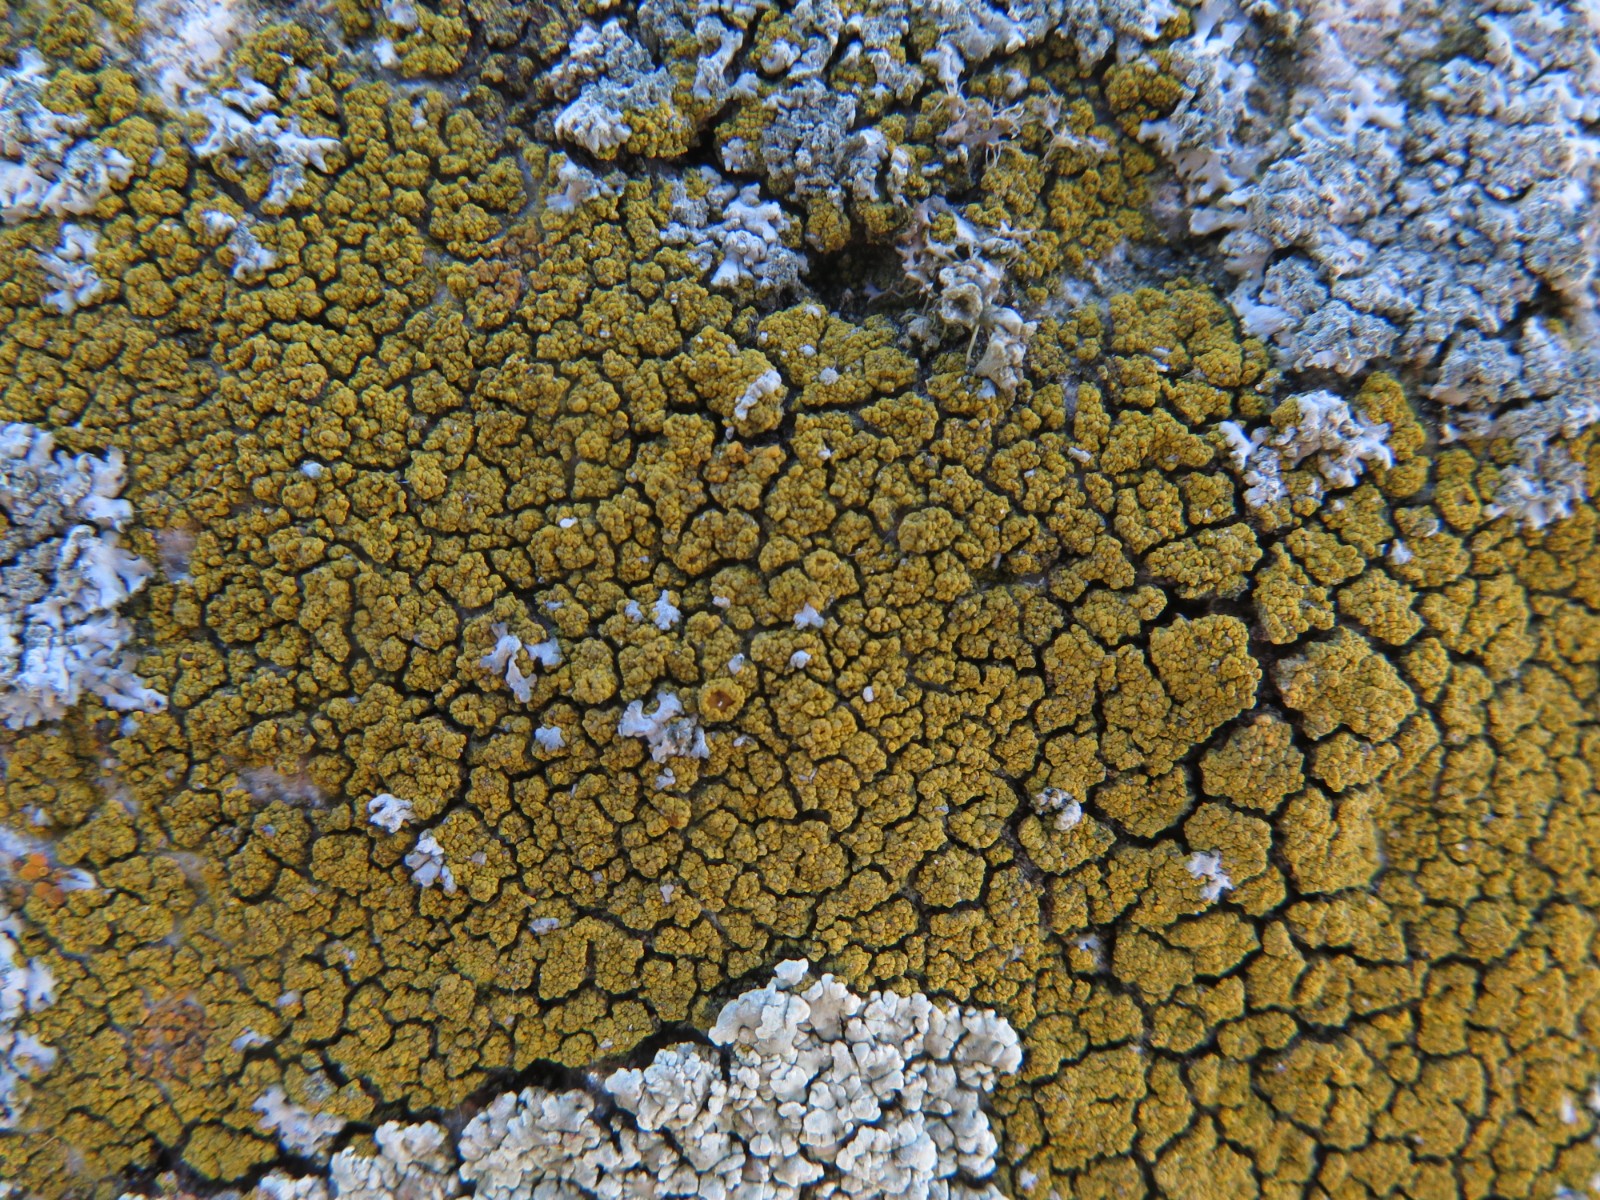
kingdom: Fungi
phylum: Ascomycota
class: Candelariomycetes
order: Candelariales
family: Candelariaceae
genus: Candelariella
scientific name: Candelariella vitellina
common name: almindelig æggeblommelav
